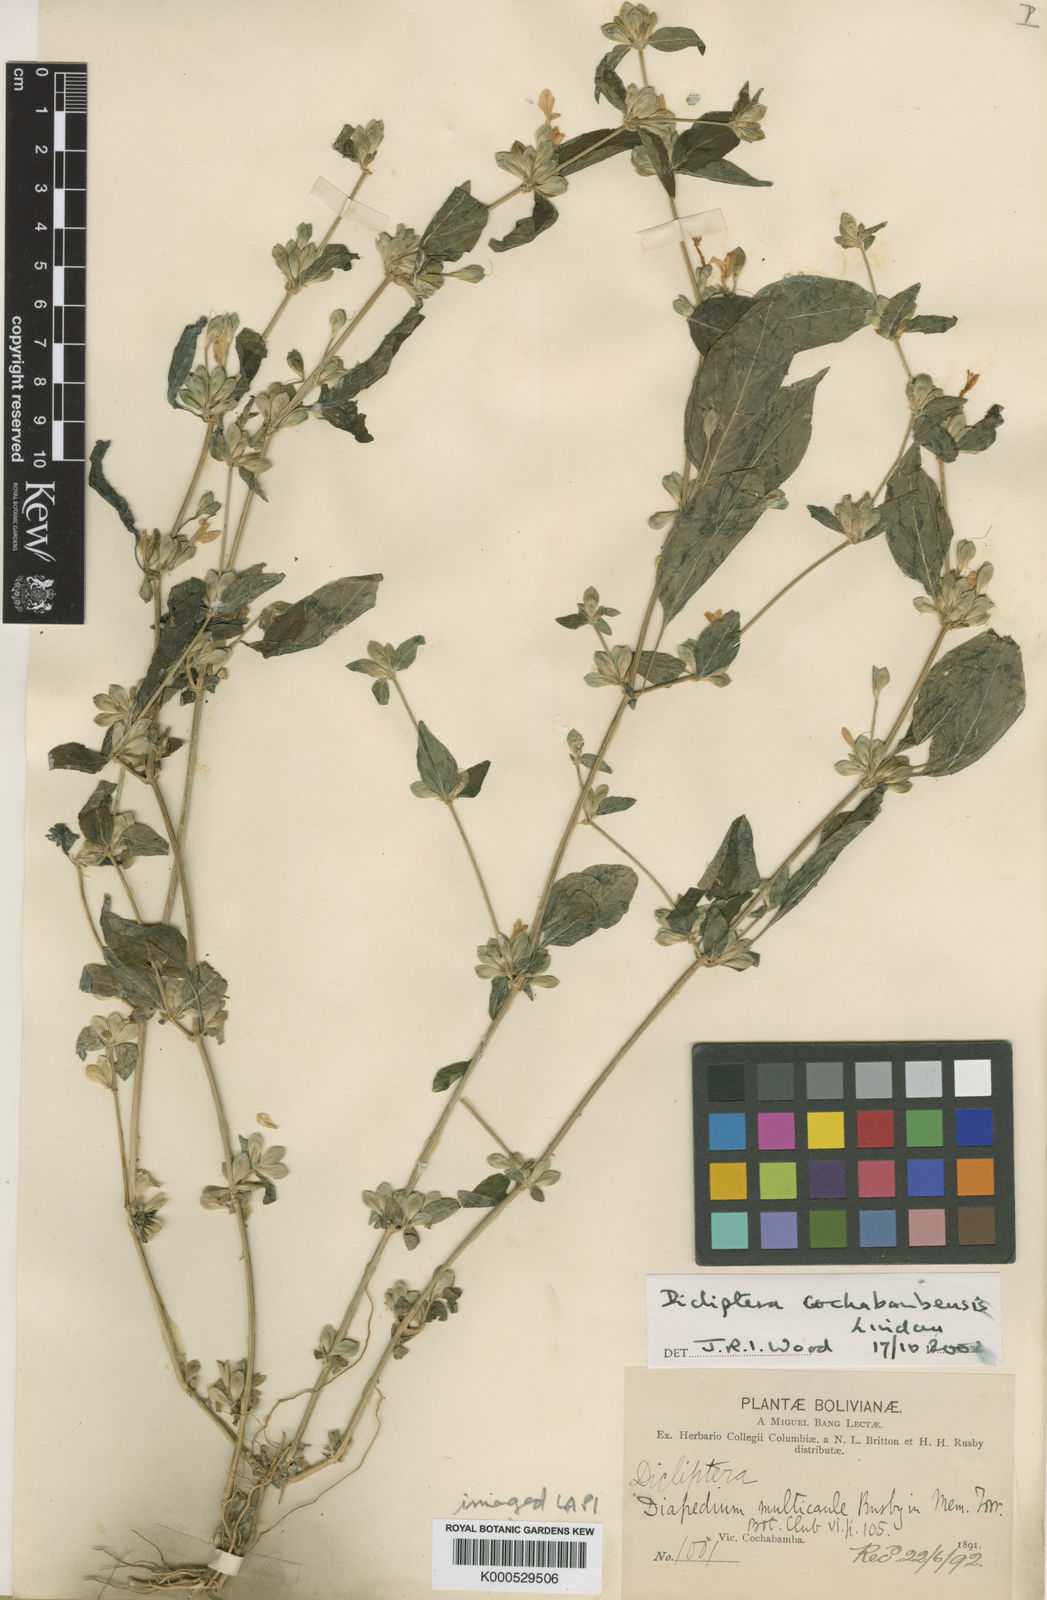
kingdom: Plantae
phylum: Tracheophyta
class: Magnoliopsida
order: Lamiales
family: Acanthaceae
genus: Dicliptera
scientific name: Dicliptera cochabambensis
